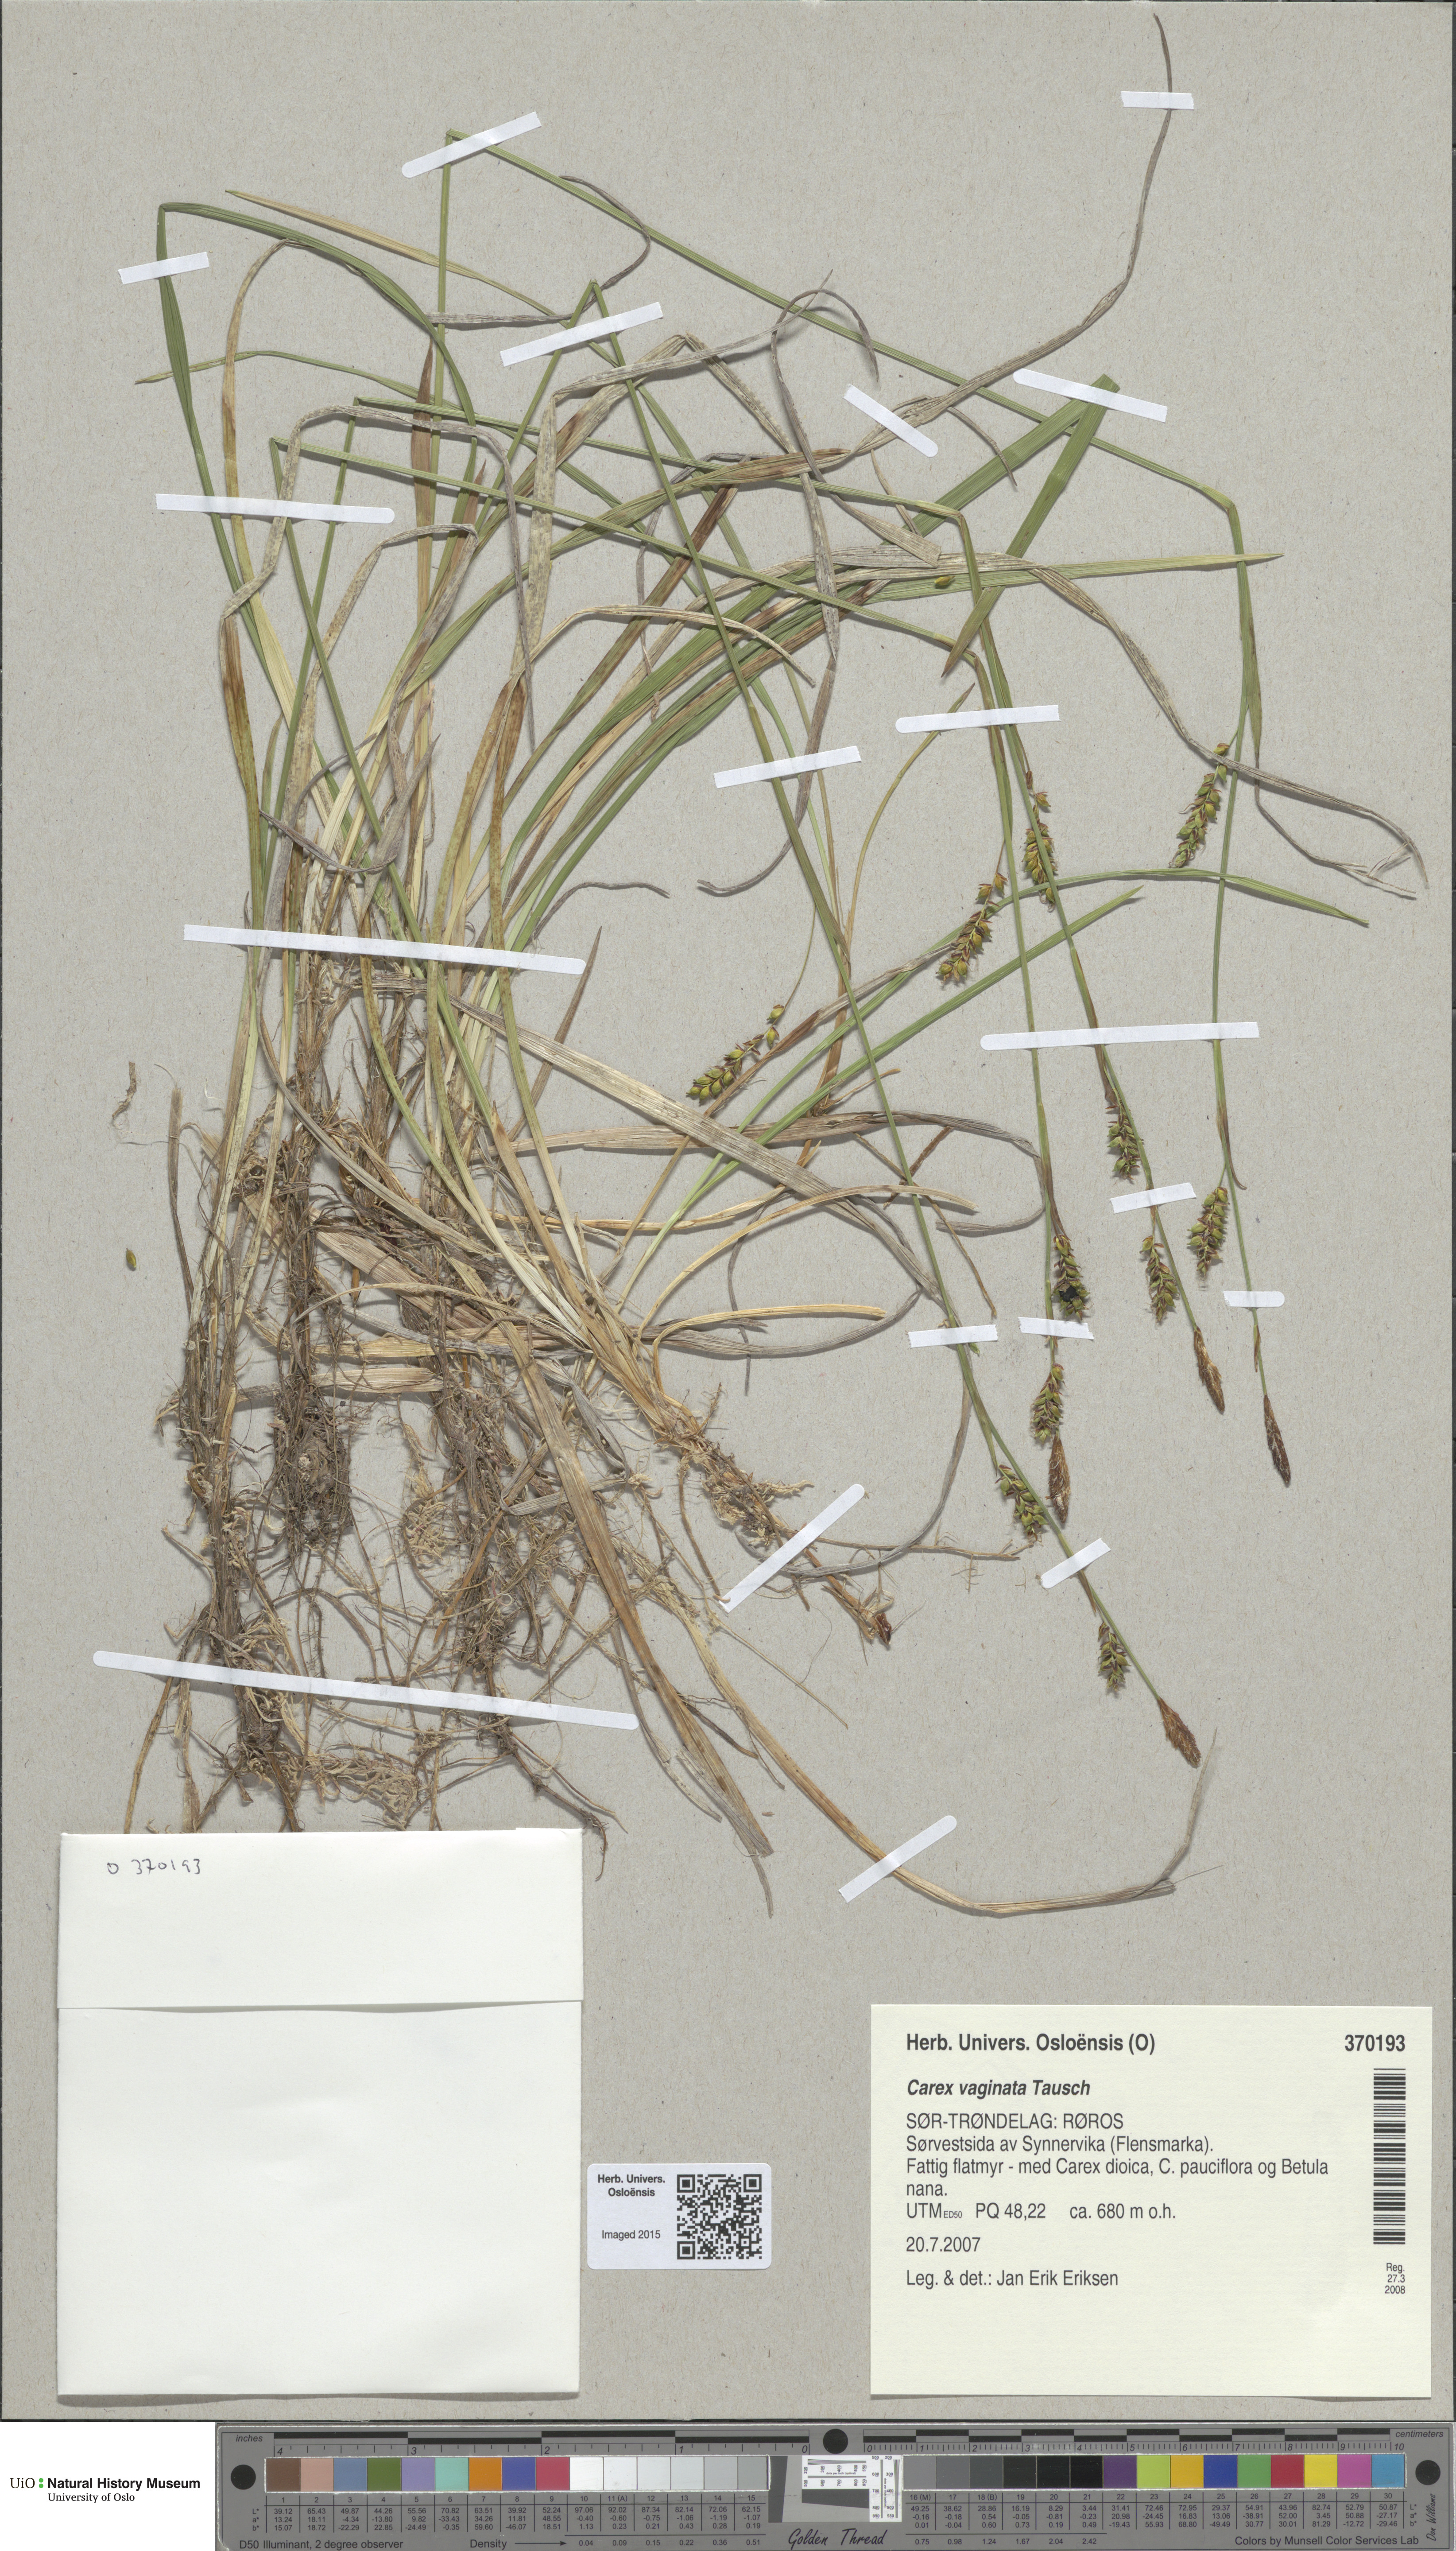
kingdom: Plantae
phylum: Tracheophyta
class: Liliopsida
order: Poales
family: Cyperaceae
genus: Carex
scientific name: Carex vaginata
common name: Sheathed sedge
